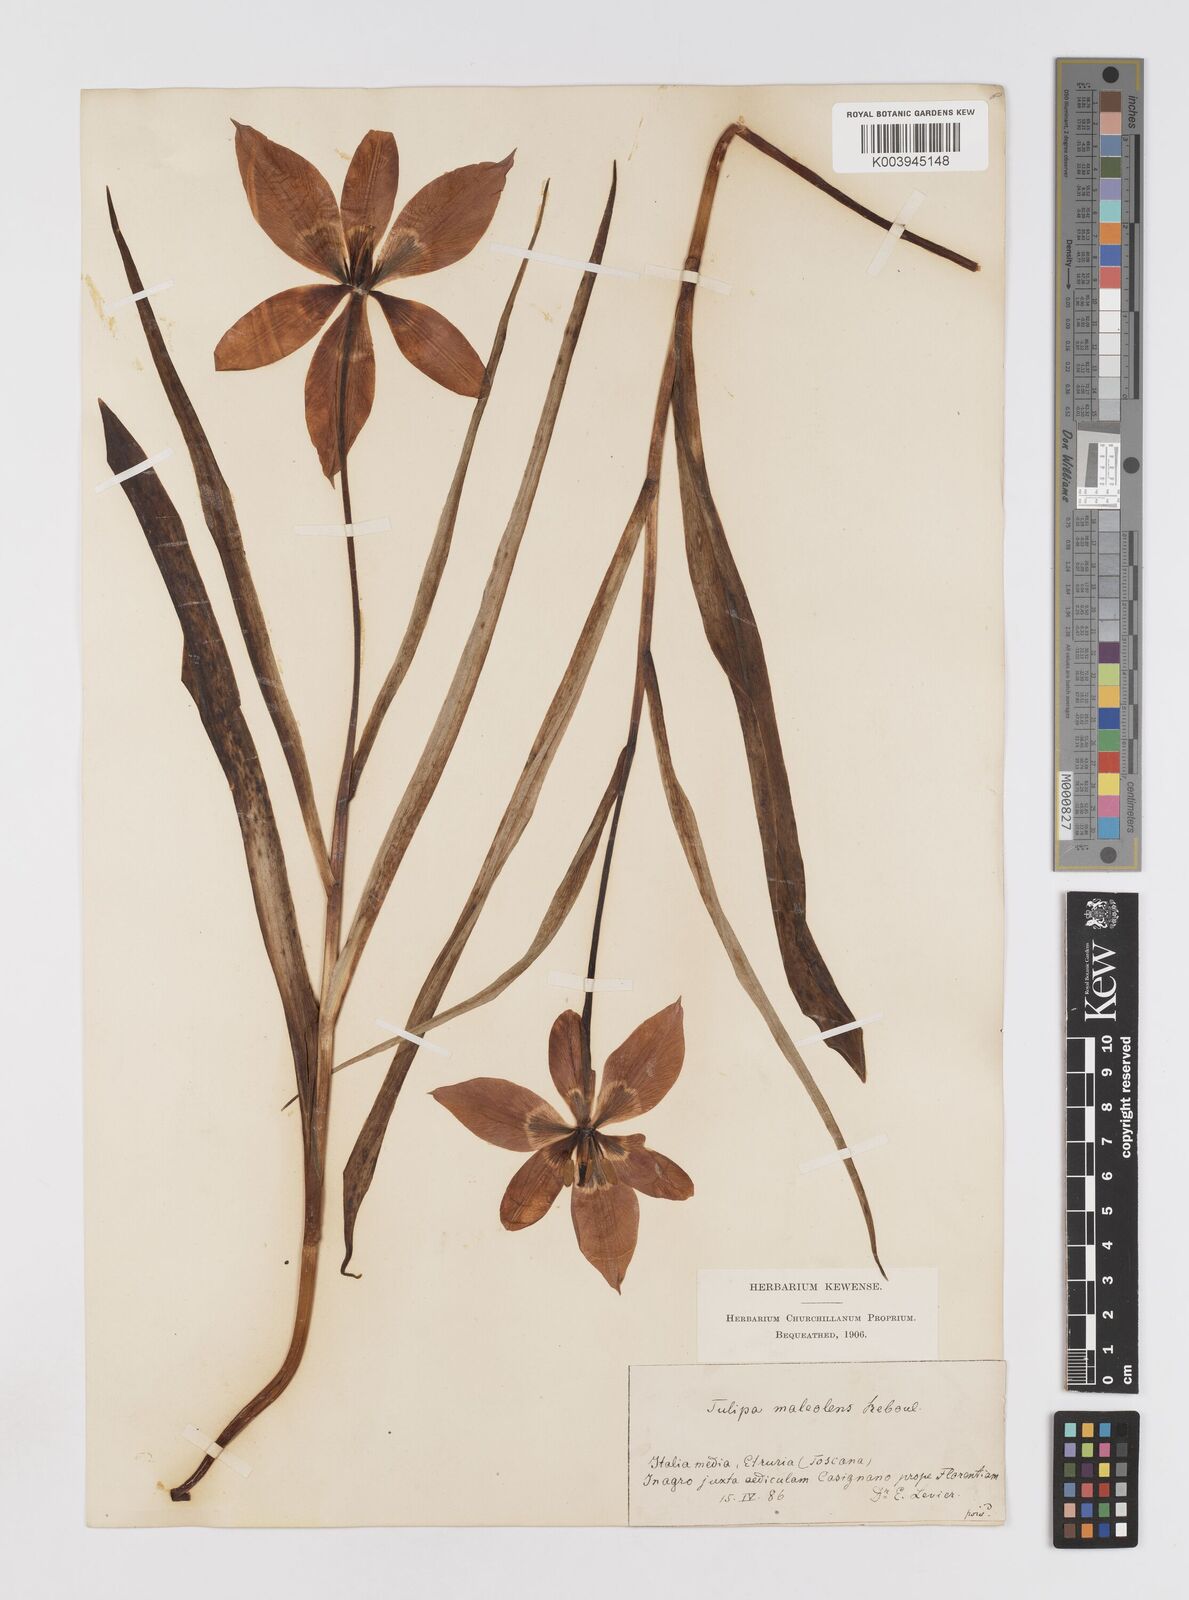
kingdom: Plantae
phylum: Tracheophyta
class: Liliopsida
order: Liliales
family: Liliaceae
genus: Tulipa
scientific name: Tulipa agenensis
